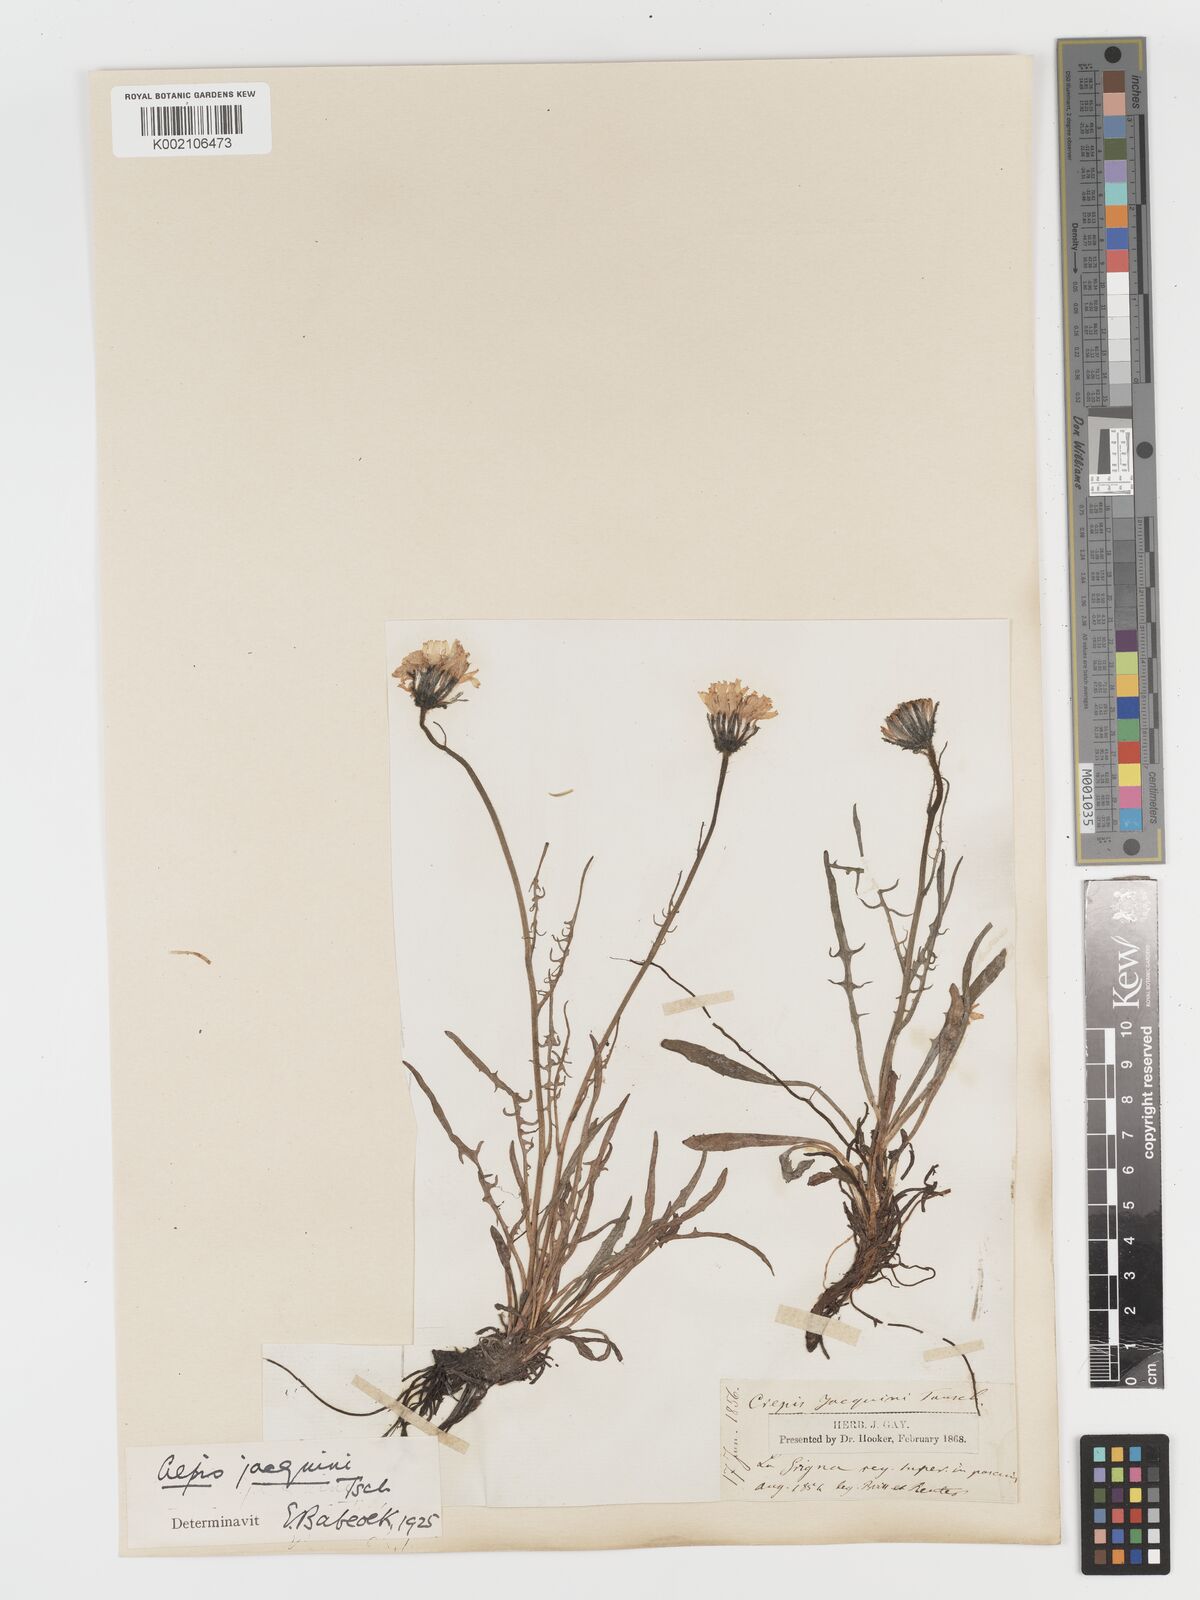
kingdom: Plantae
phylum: Tracheophyta
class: Magnoliopsida
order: Asterales
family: Asteraceae
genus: Crepis
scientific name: Crepis jacquinii
